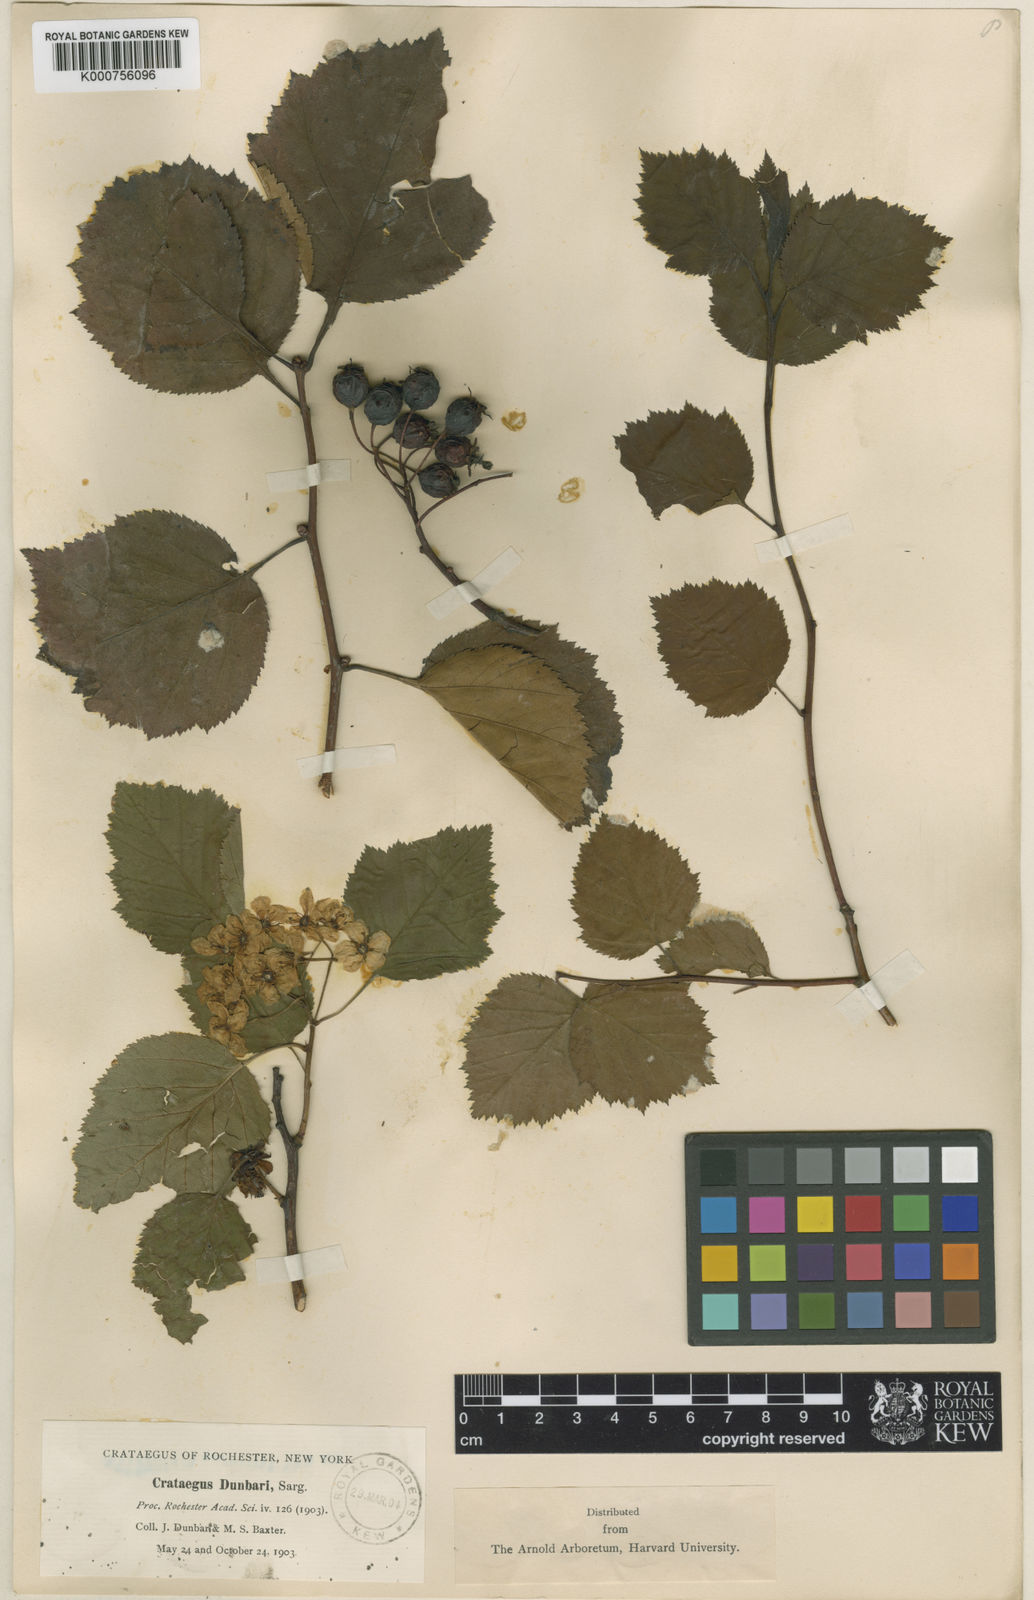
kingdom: Plantae
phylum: Tracheophyta
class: Magnoliopsida
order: Rosales
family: Rosaceae
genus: Crataegus
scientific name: Crataegus scabrida
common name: Rough hawthorn
